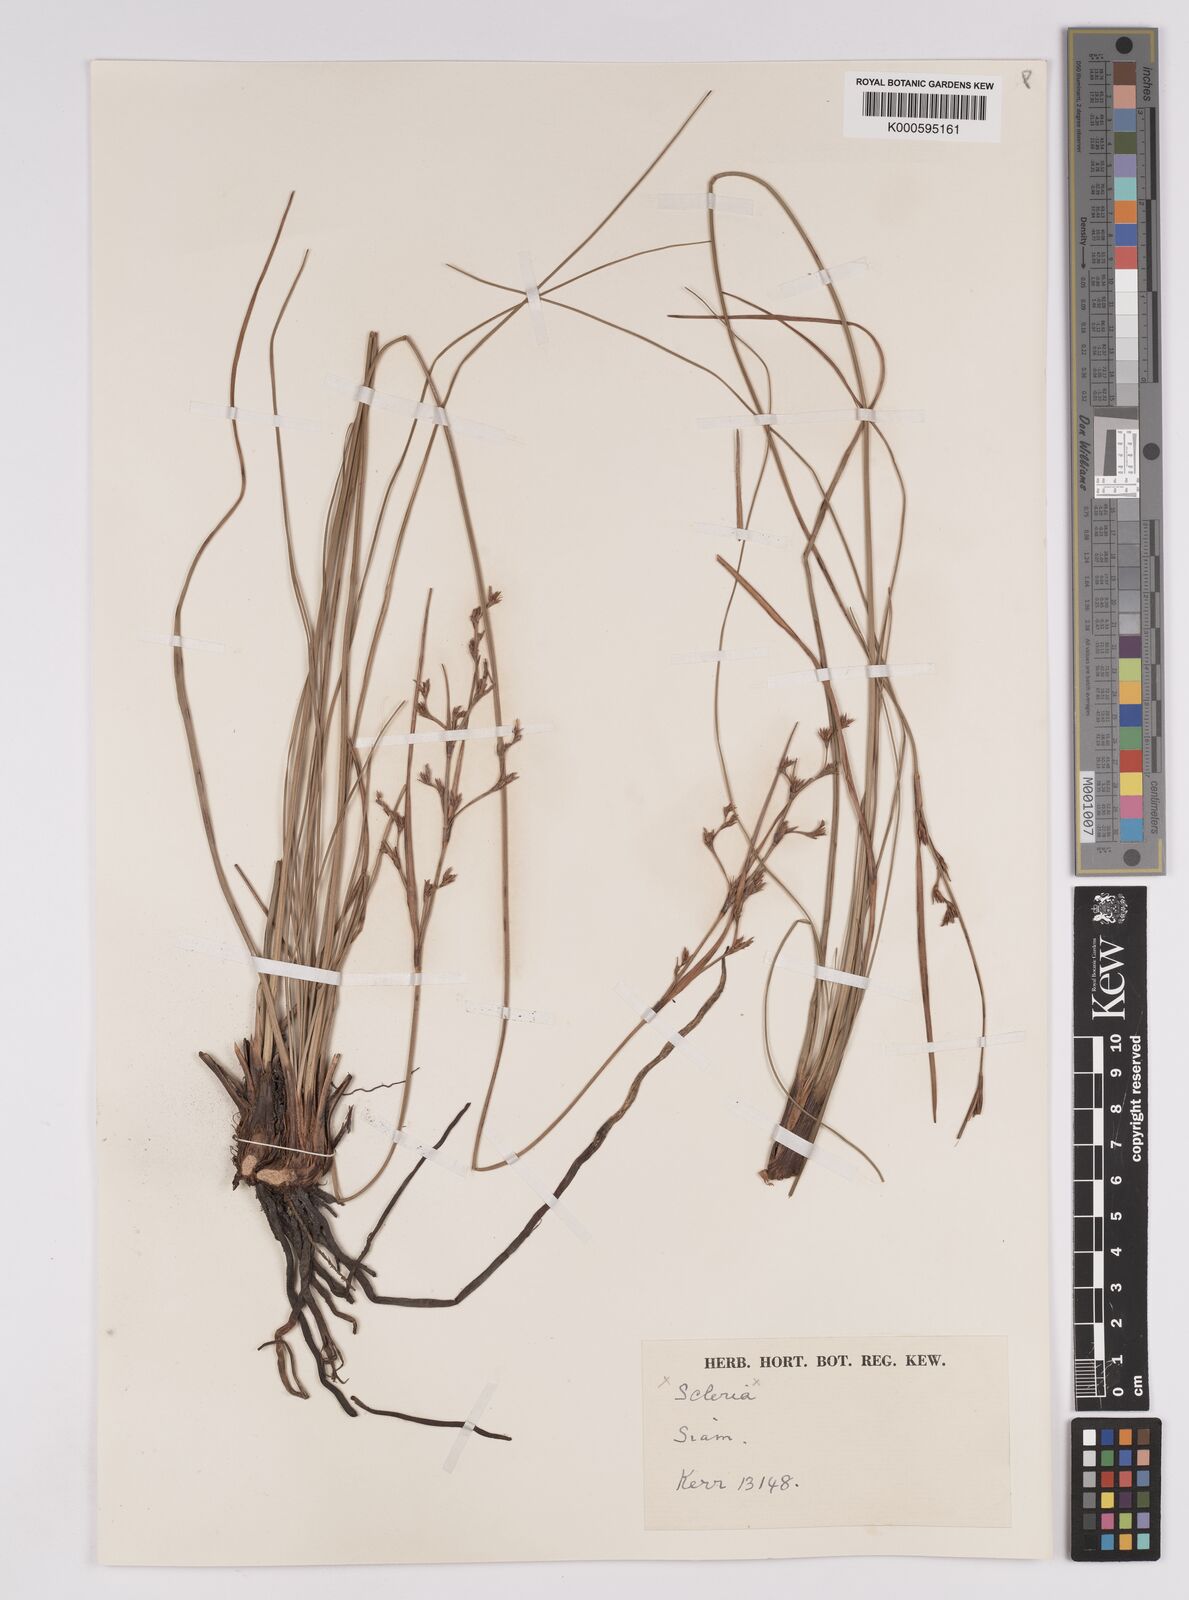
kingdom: Plantae
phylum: Tracheophyta
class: Liliopsida
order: Poales
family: Cyperaceae
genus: Anthelepis
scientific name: Anthelepis undulata
